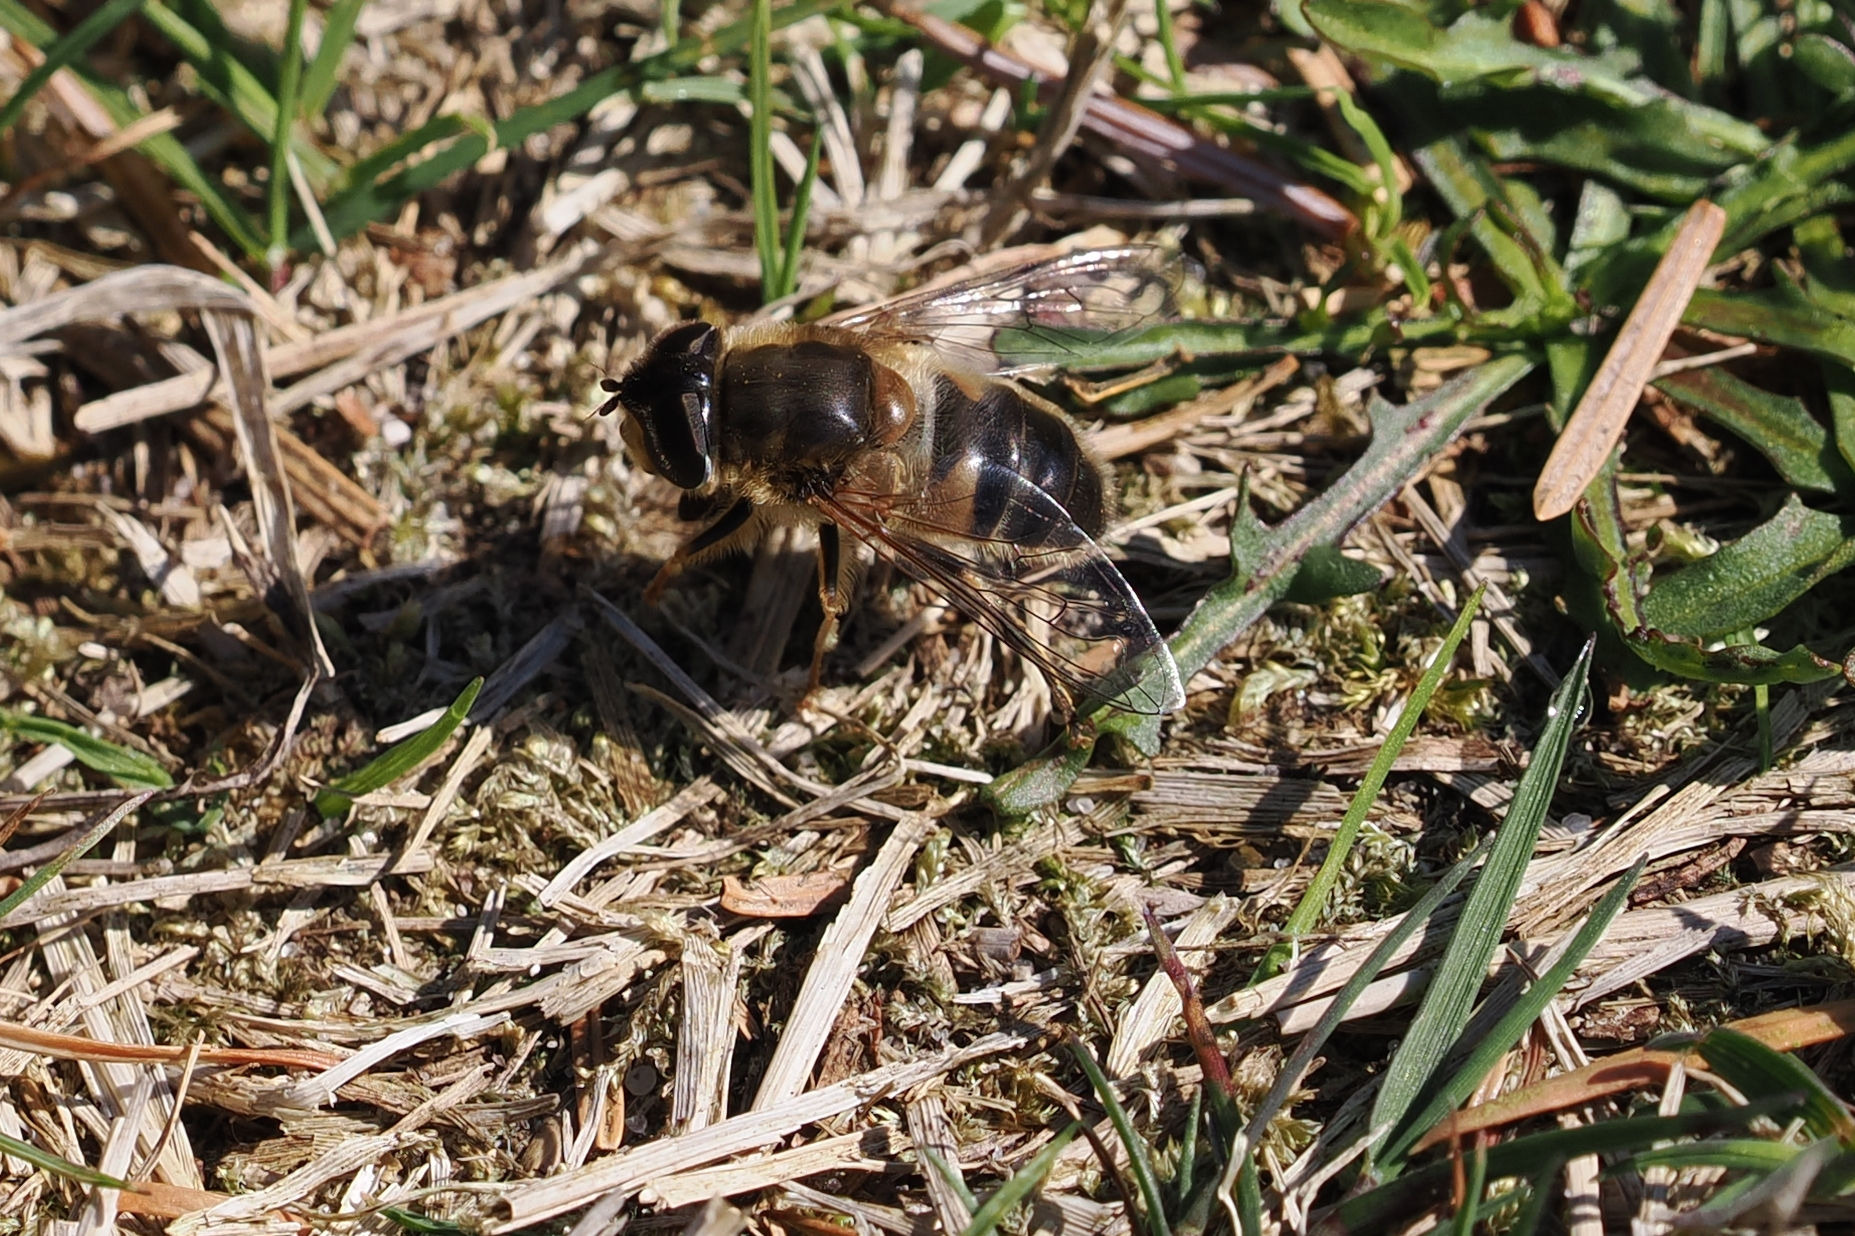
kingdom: Animalia
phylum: Arthropoda
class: Insecta
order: Diptera
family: Syrphidae
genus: Eristalis
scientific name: Eristalis pertinax
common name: Gulfodet dyndflue
